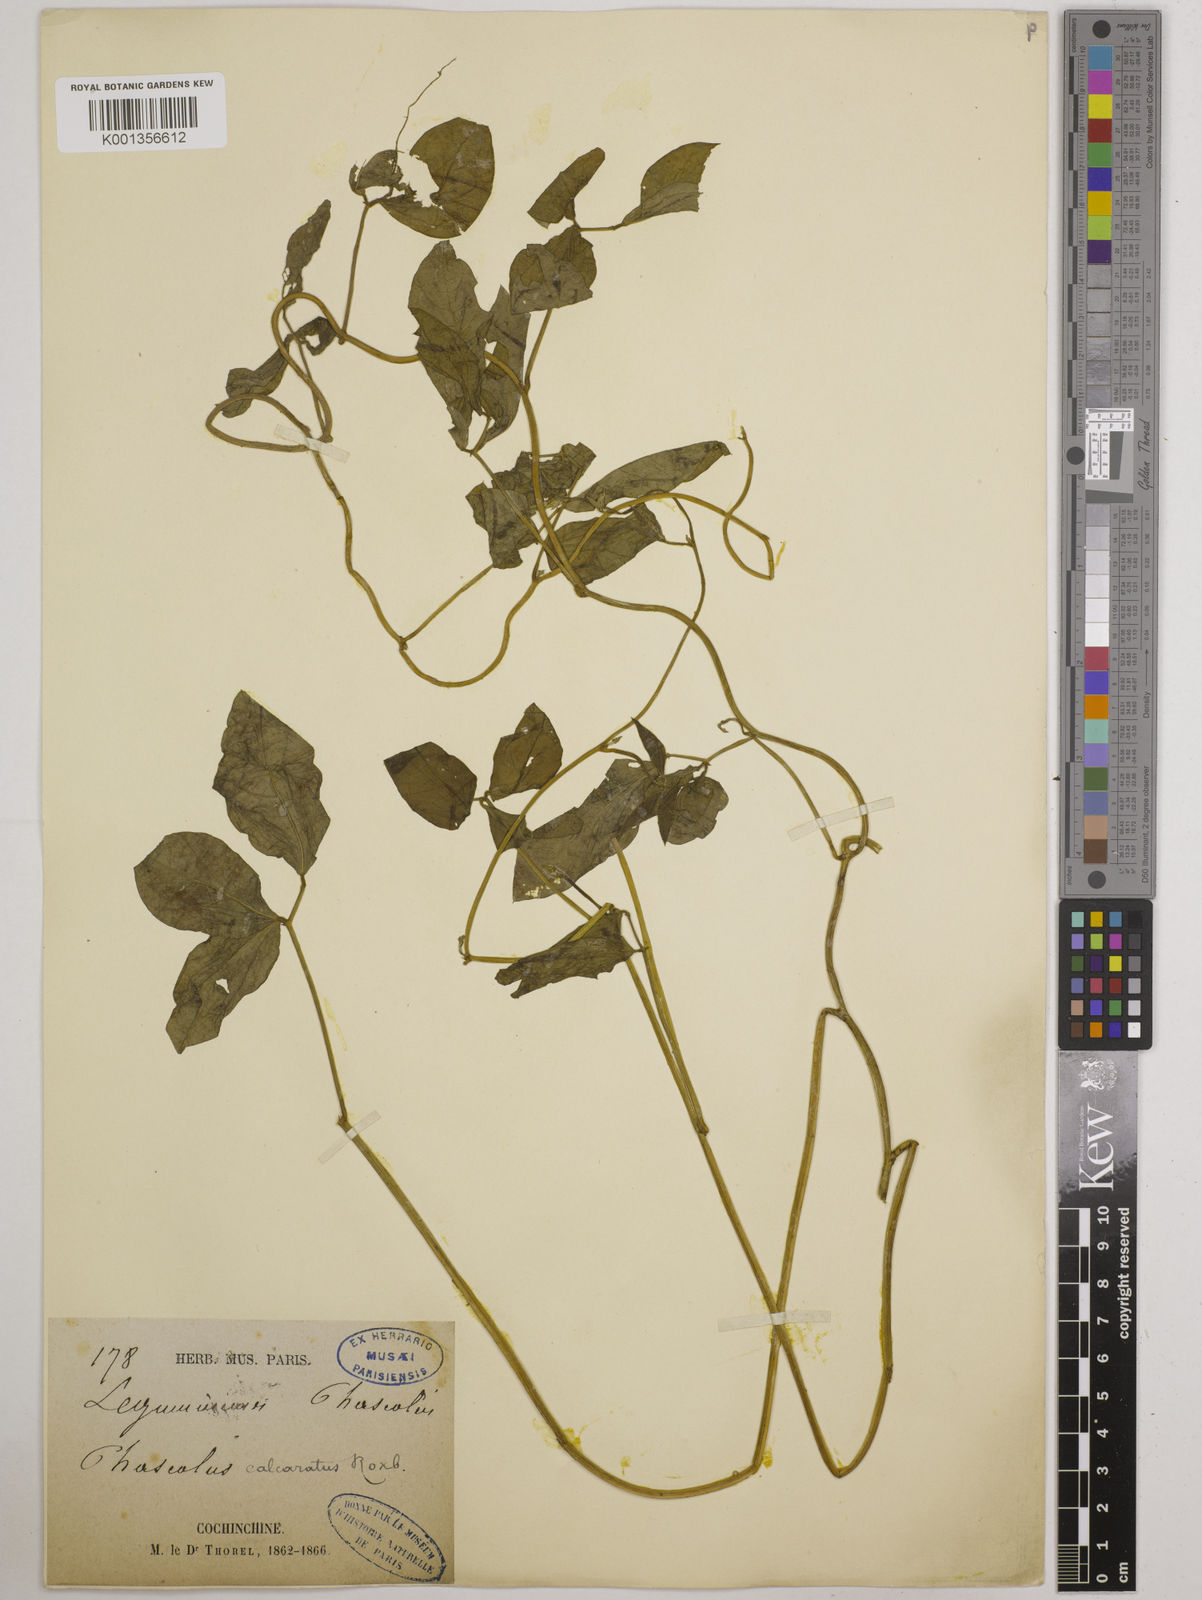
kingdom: Plantae
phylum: Tracheophyta
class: Magnoliopsida
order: Fabales
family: Fabaceae
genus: Vigna
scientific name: Vigna umbellata
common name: Oriental-bean
